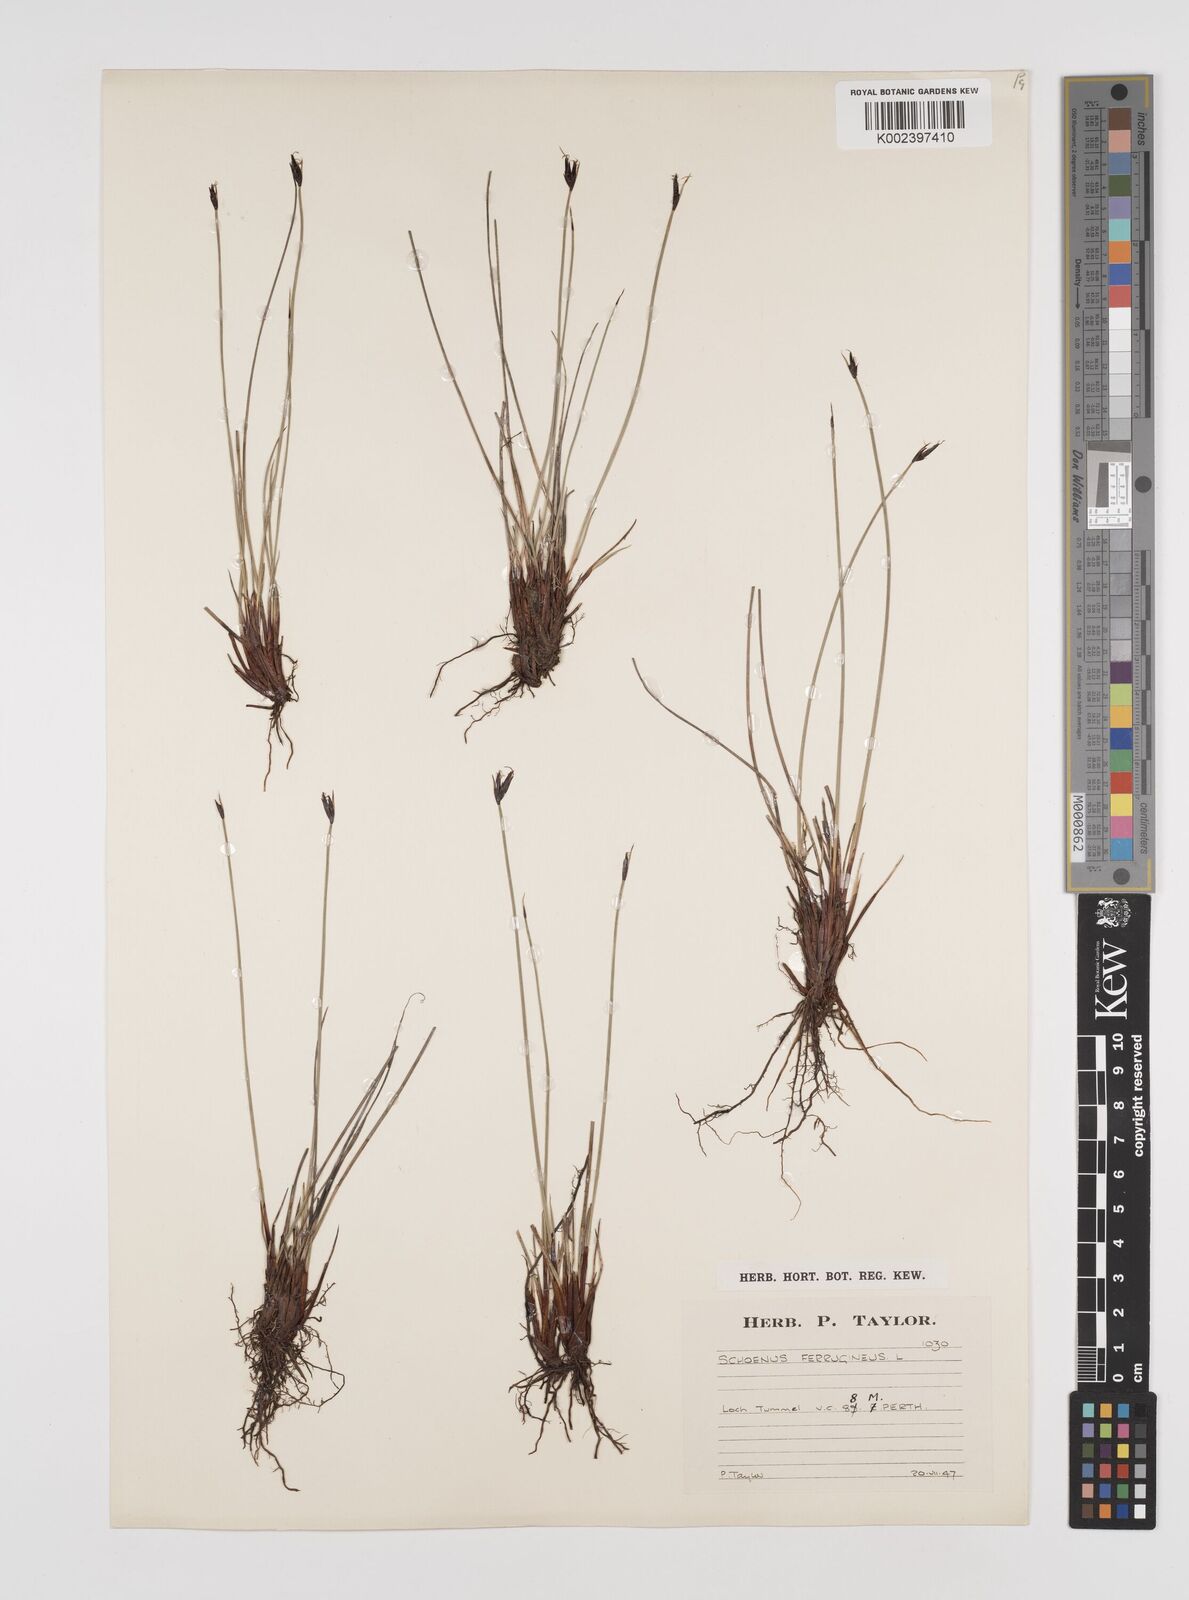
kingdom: Plantae
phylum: Tracheophyta
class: Liliopsida
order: Poales
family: Cyperaceae
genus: Schoenus
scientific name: Schoenus ferrugineus
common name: Brown bog-rush
